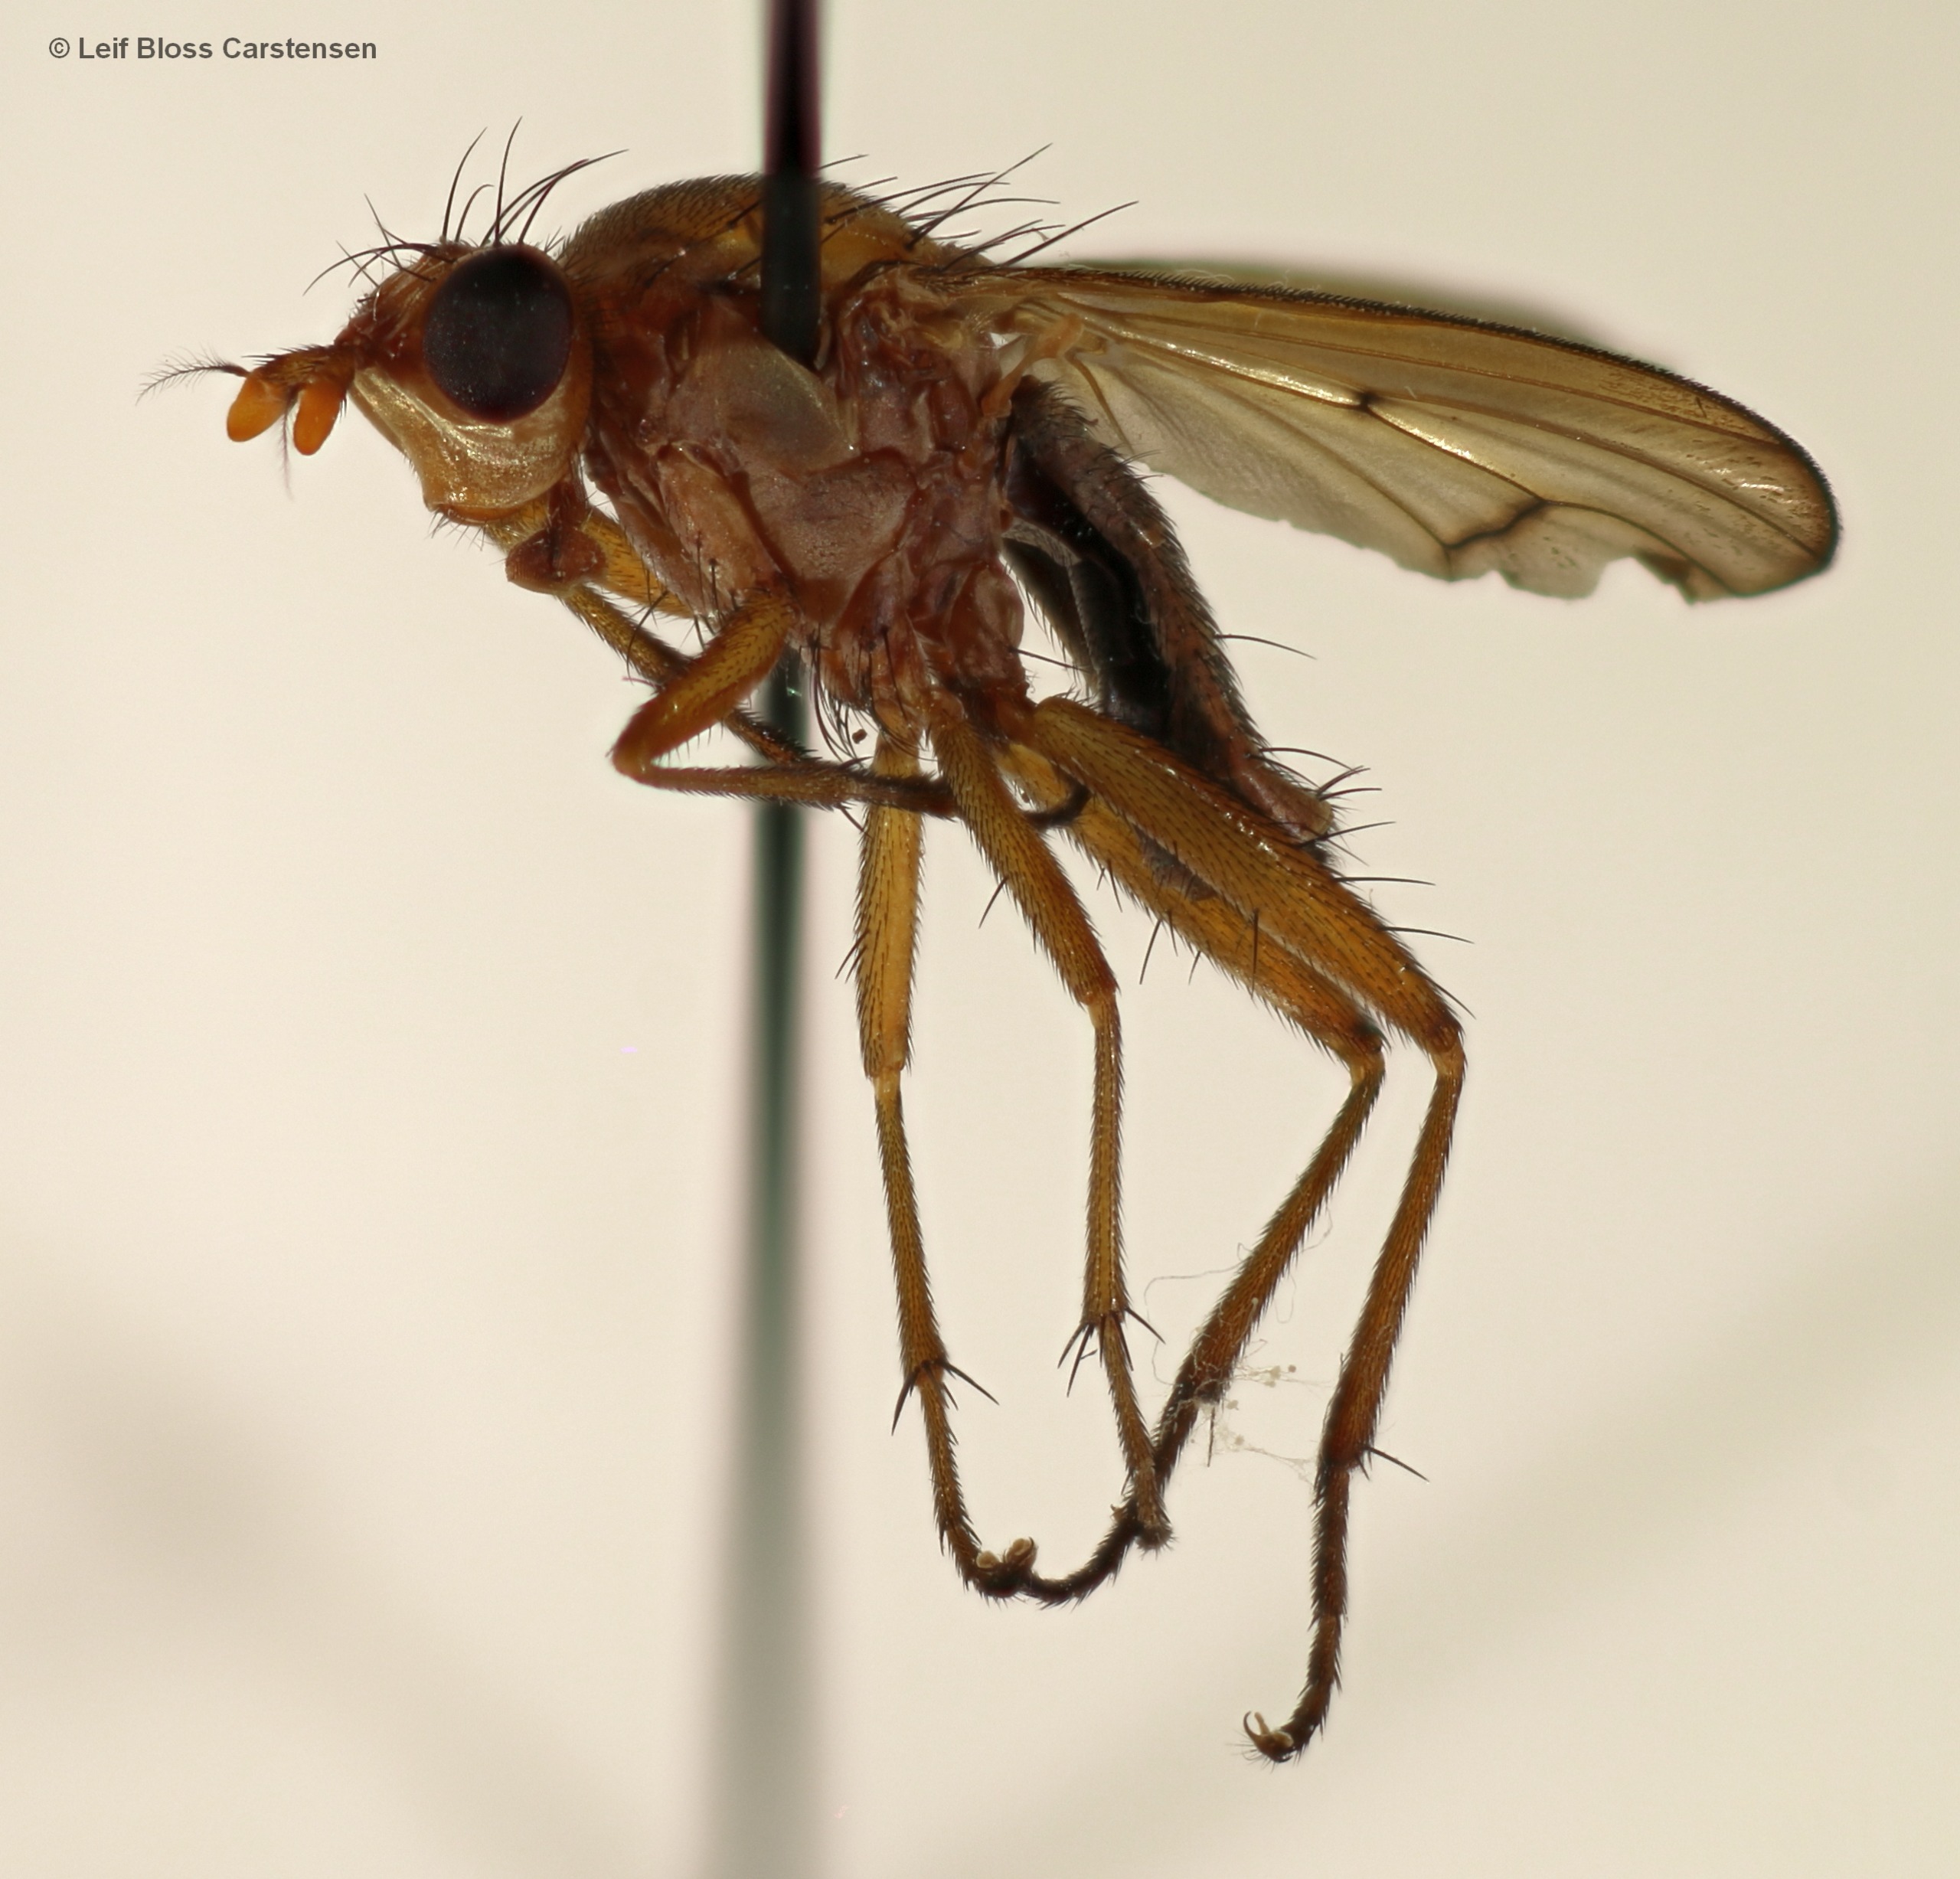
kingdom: Animalia
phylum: Arthropoda
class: Insecta
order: Diptera
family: Sciomyzidae
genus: Tetanocera
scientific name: Tetanocera hyalipennis
